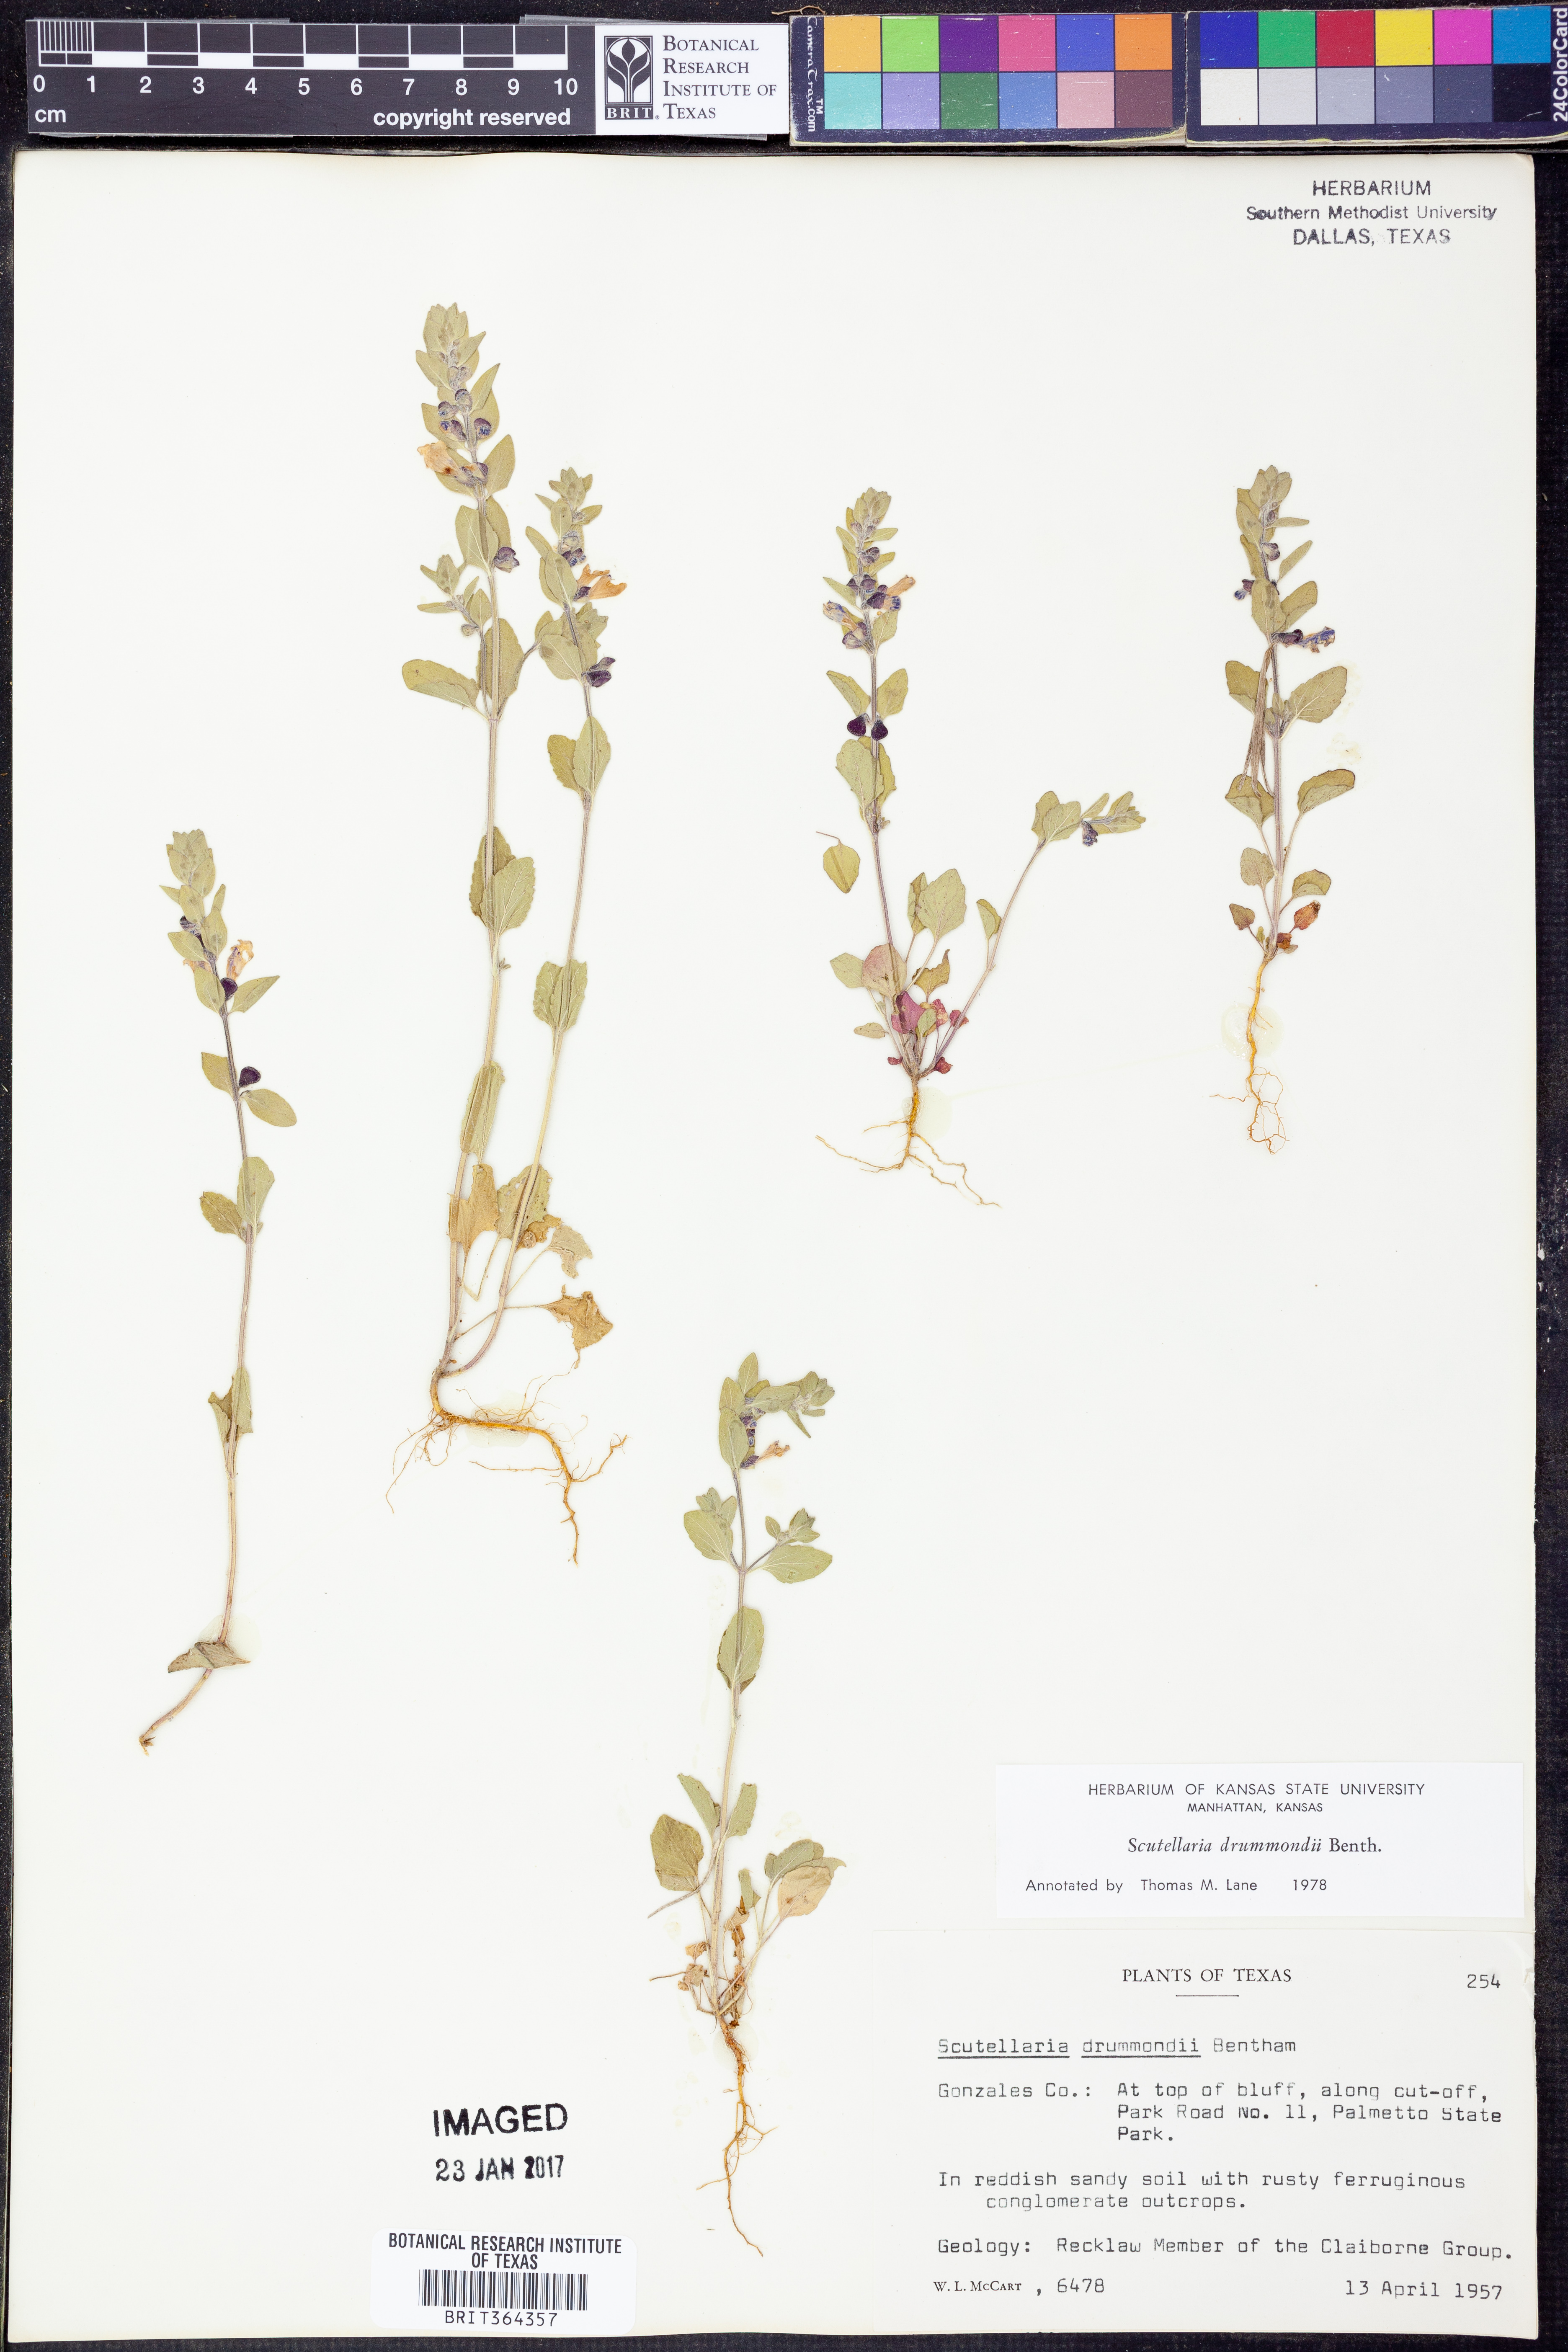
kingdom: Plantae
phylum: Tracheophyta
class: Magnoliopsida
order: Lamiales
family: Lamiaceae
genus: Scutellaria
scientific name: Scutellaria drummondii
